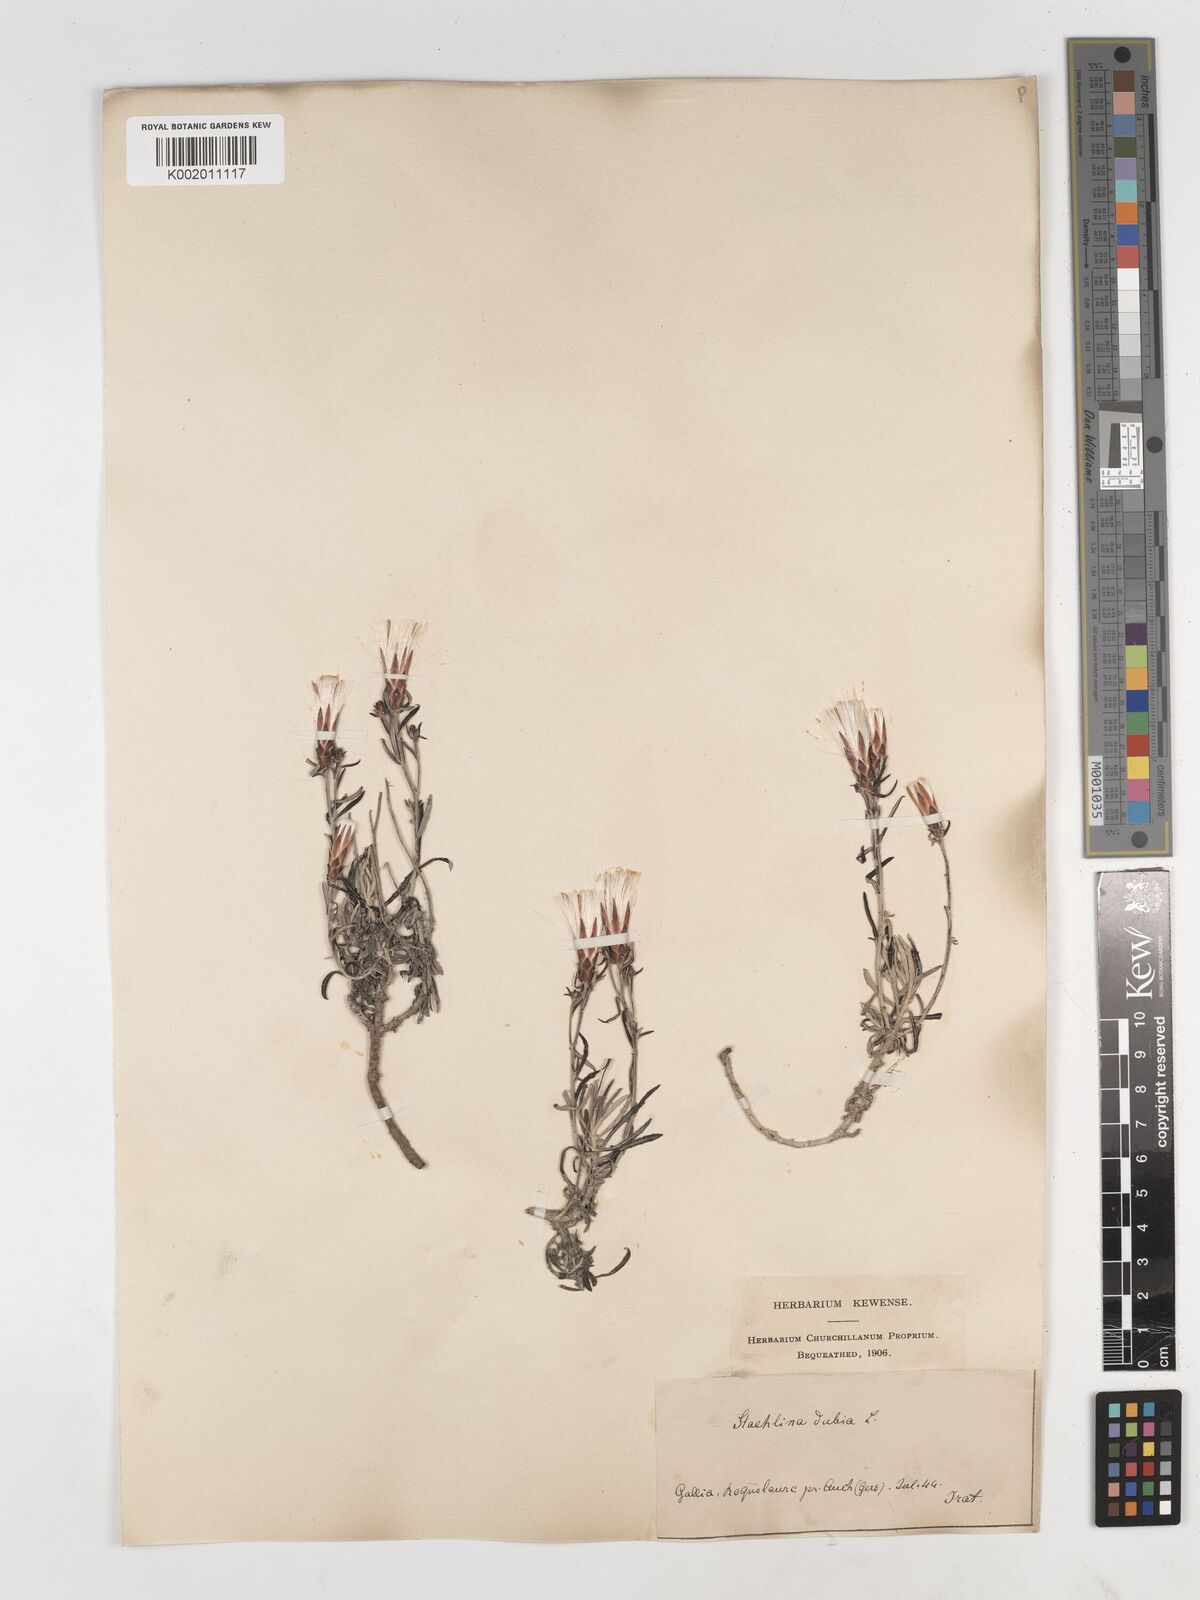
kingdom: Plantae
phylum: Tracheophyta
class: Magnoliopsida
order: Asterales
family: Asteraceae
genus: Staehelina
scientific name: Staehelina dubia
